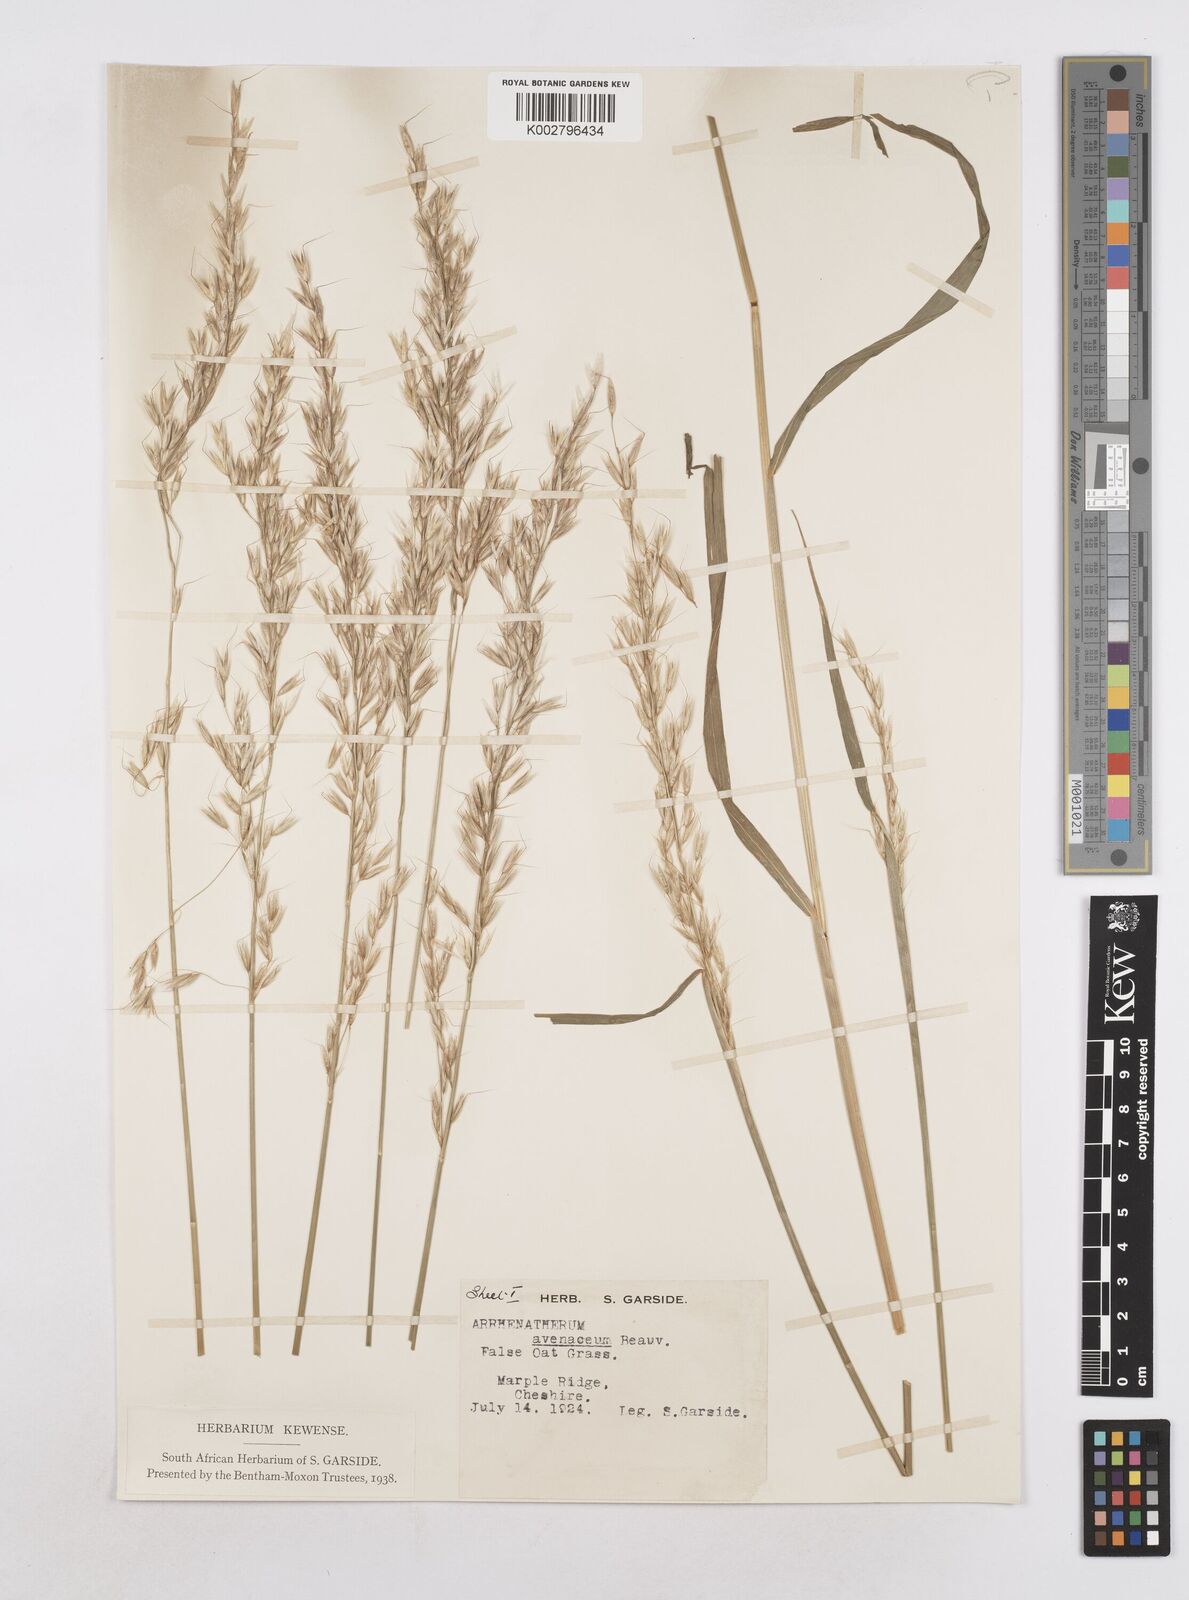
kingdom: Plantae
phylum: Tracheophyta
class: Liliopsida
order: Poales
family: Poaceae
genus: Arrhenatherum
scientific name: Arrhenatherum elatius
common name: Tall oatgrass
